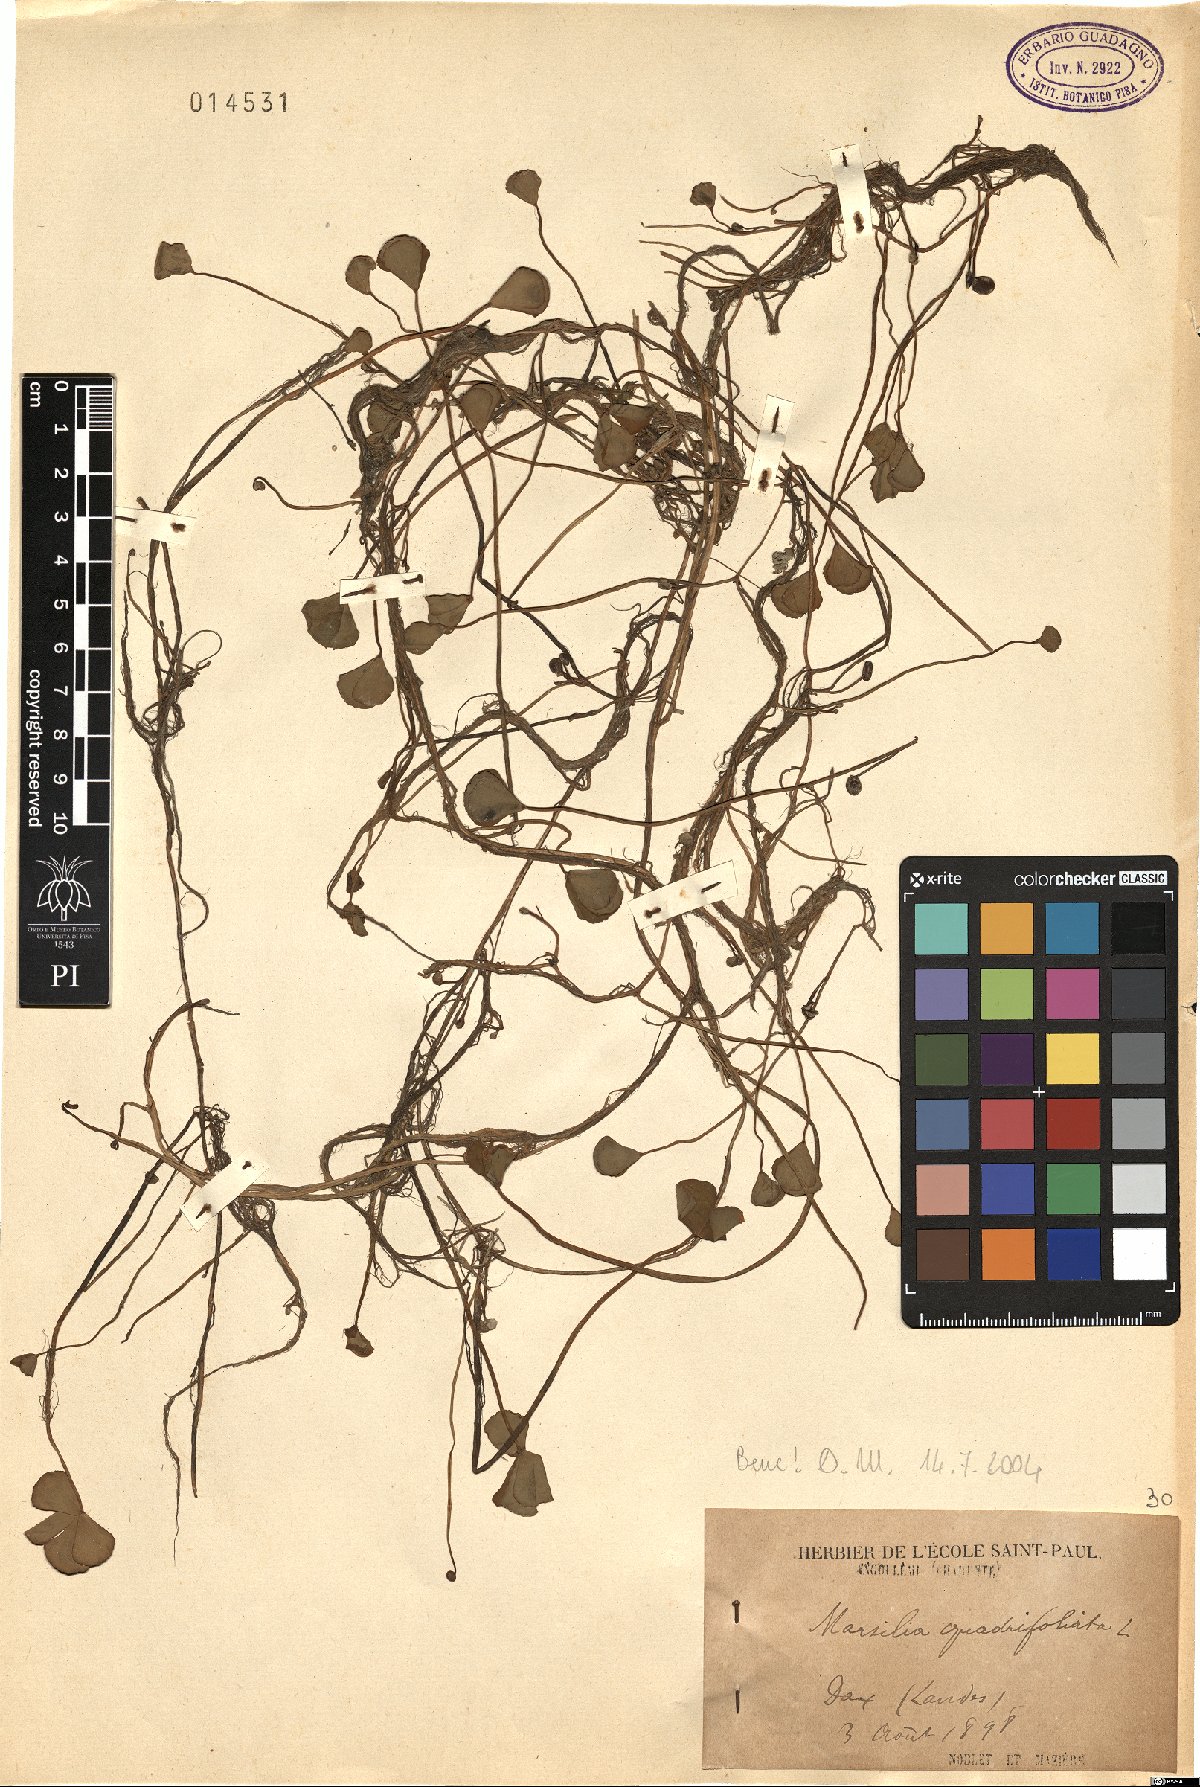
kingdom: Plantae
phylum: Tracheophyta
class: Polypodiopsida
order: Salviniales
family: Marsileaceae
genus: Marsilea
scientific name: Marsilea quadrifolia
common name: Water shamrock
